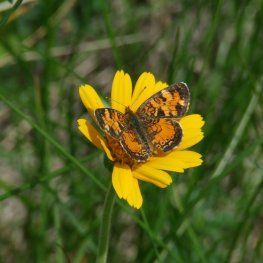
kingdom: Animalia
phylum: Arthropoda
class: Insecta
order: Lepidoptera
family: Nymphalidae
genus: Phyciodes
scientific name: Phyciodes tharos
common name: Northern Crescent
